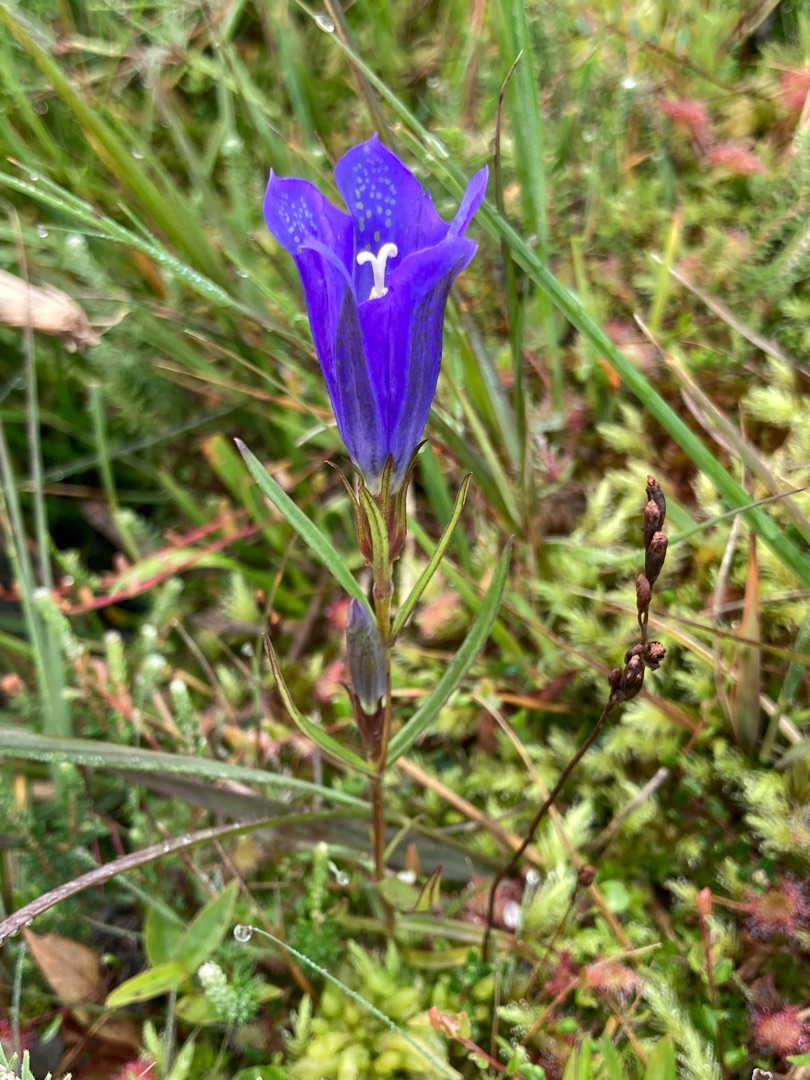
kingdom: Plantae
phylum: Tracheophyta
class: Magnoliopsida
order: Gentianales
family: Gentianaceae
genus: Gentiana
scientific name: Gentiana pneumonanthe
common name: Klokke-ensian
